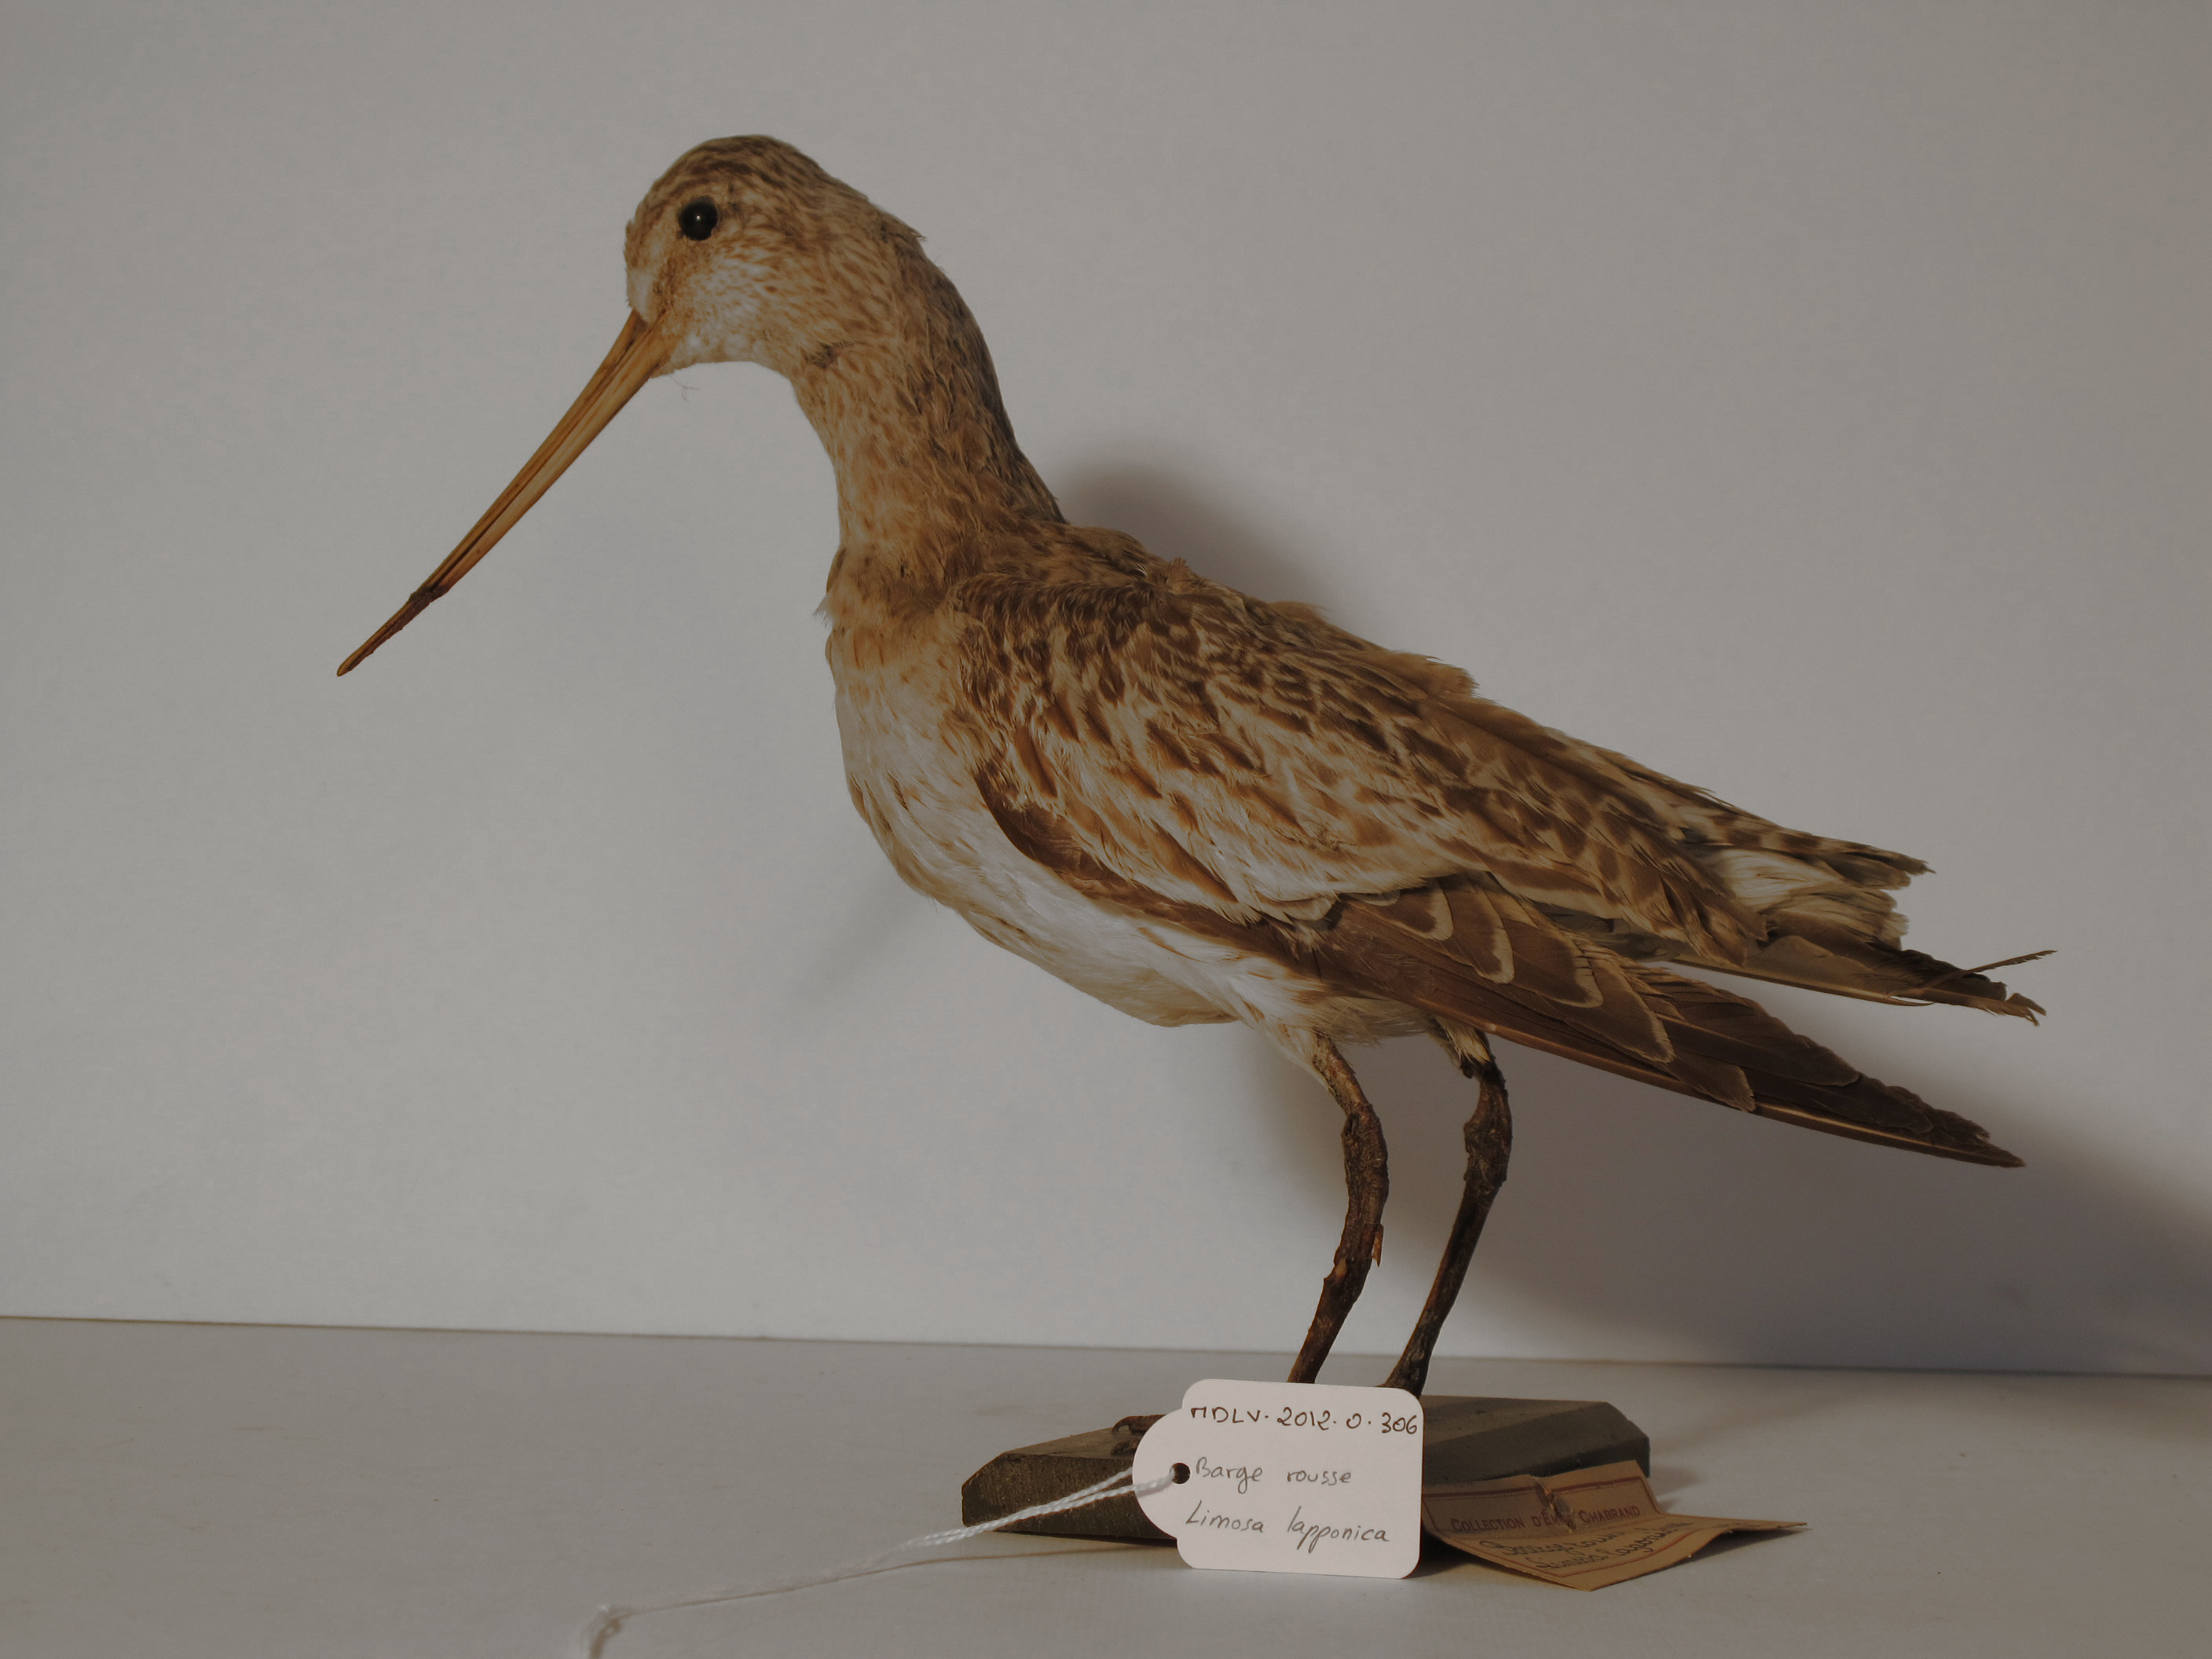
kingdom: Animalia
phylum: Chordata
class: Aves
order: Charadriiformes
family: Scolopacidae
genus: Limosa
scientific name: Limosa lapponica
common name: Bar-tailed Godwit
